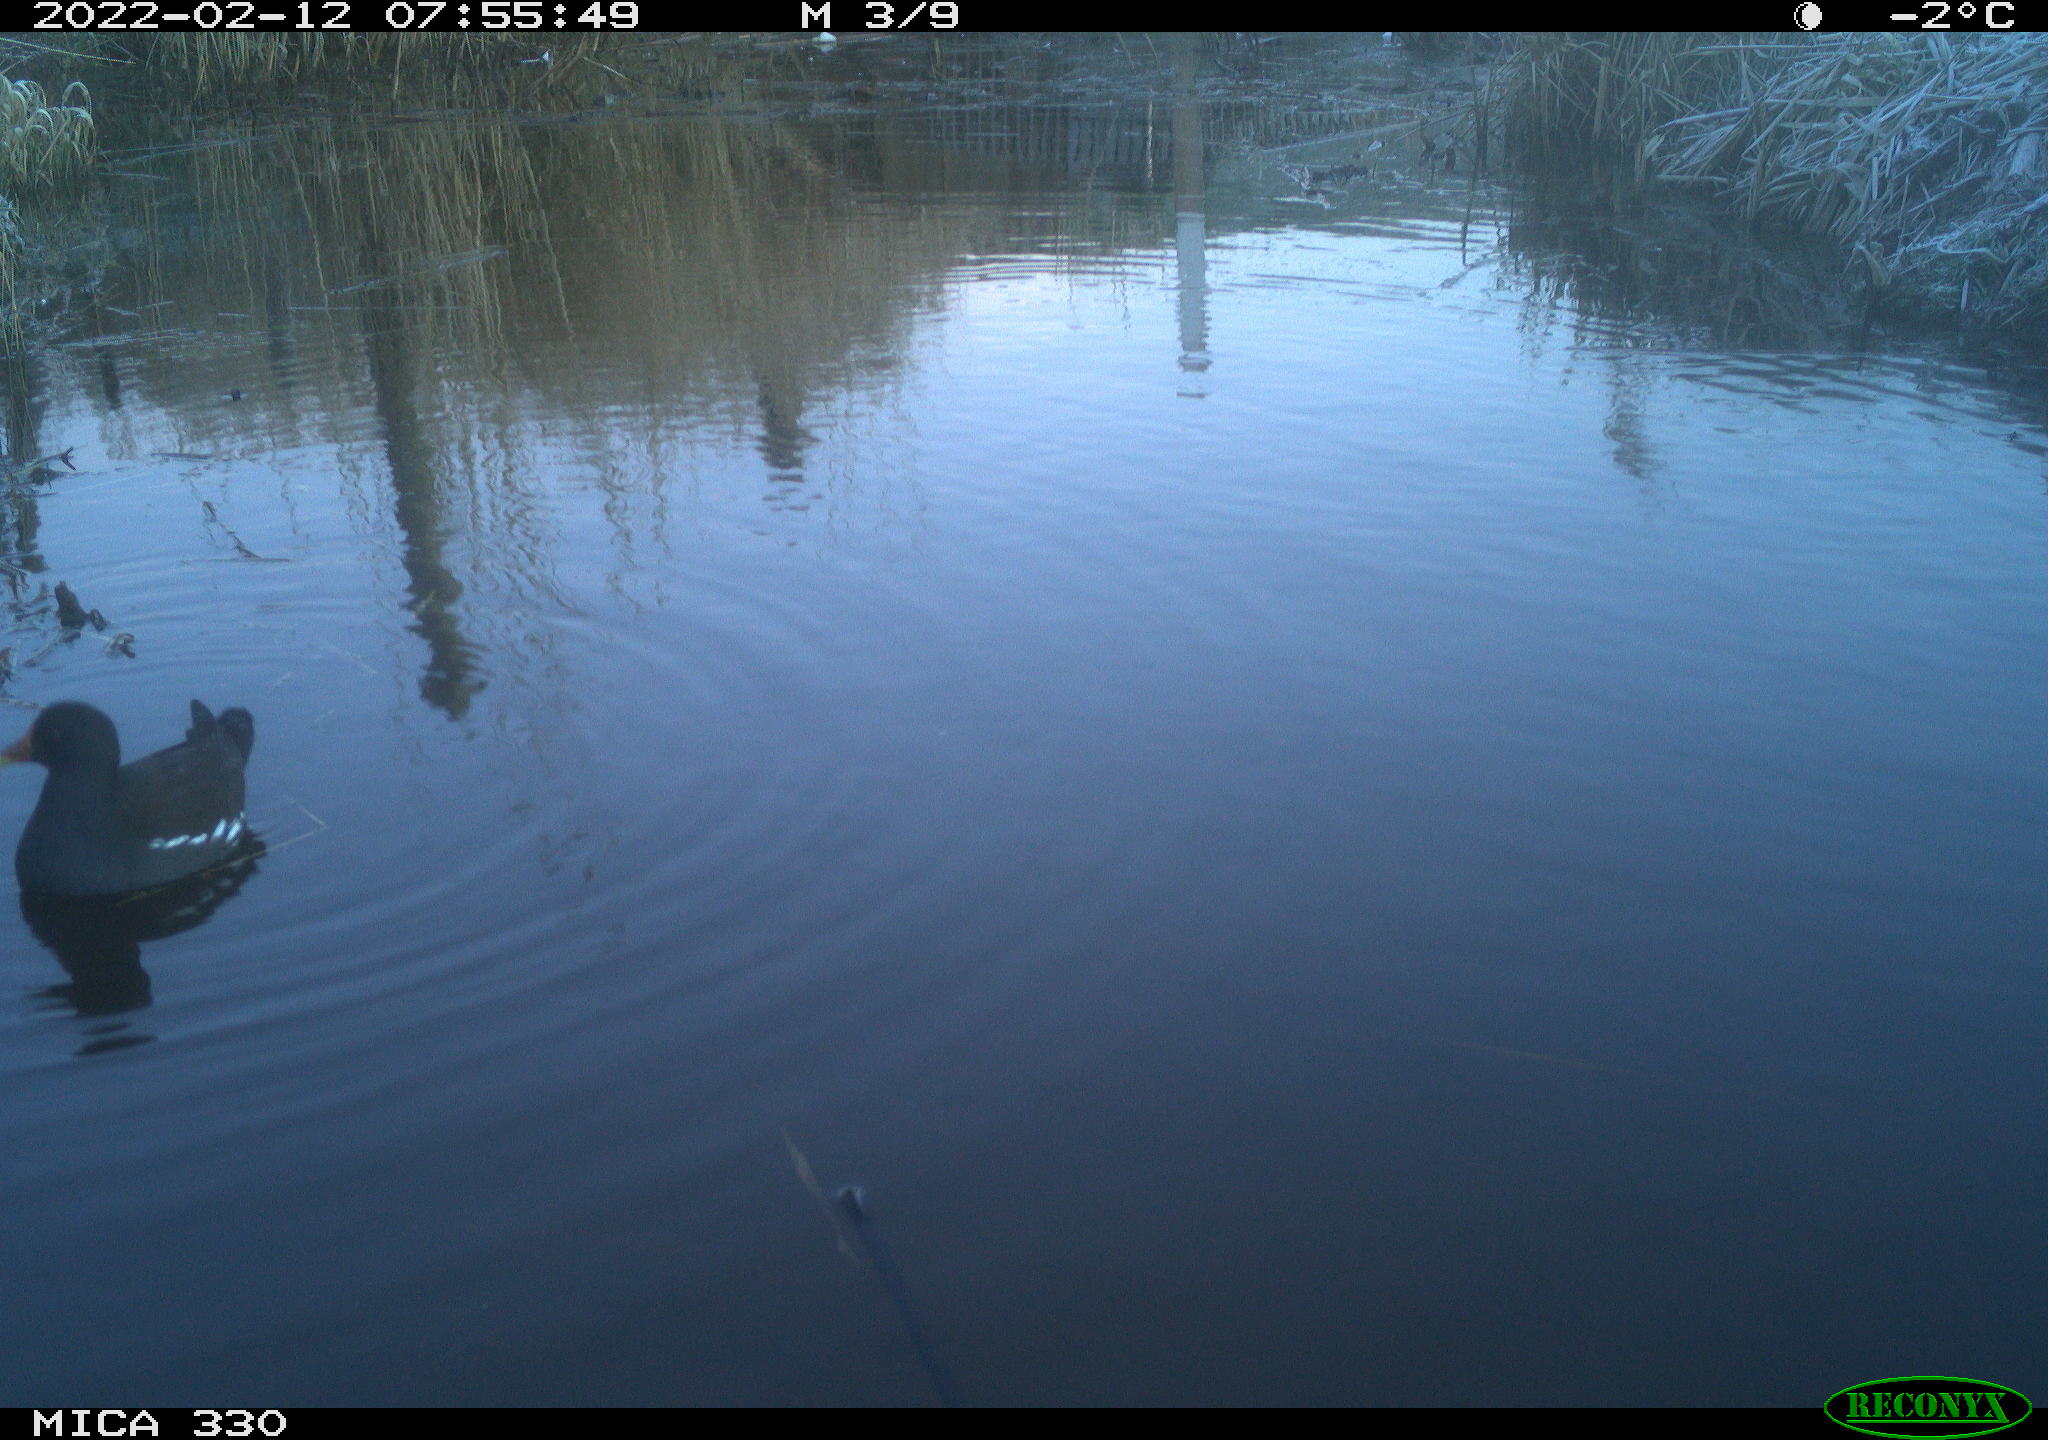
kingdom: Animalia
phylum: Chordata
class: Aves
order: Gruiformes
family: Rallidae
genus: Gallinula
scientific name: Gallinula chloropus
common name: Common moorhen
